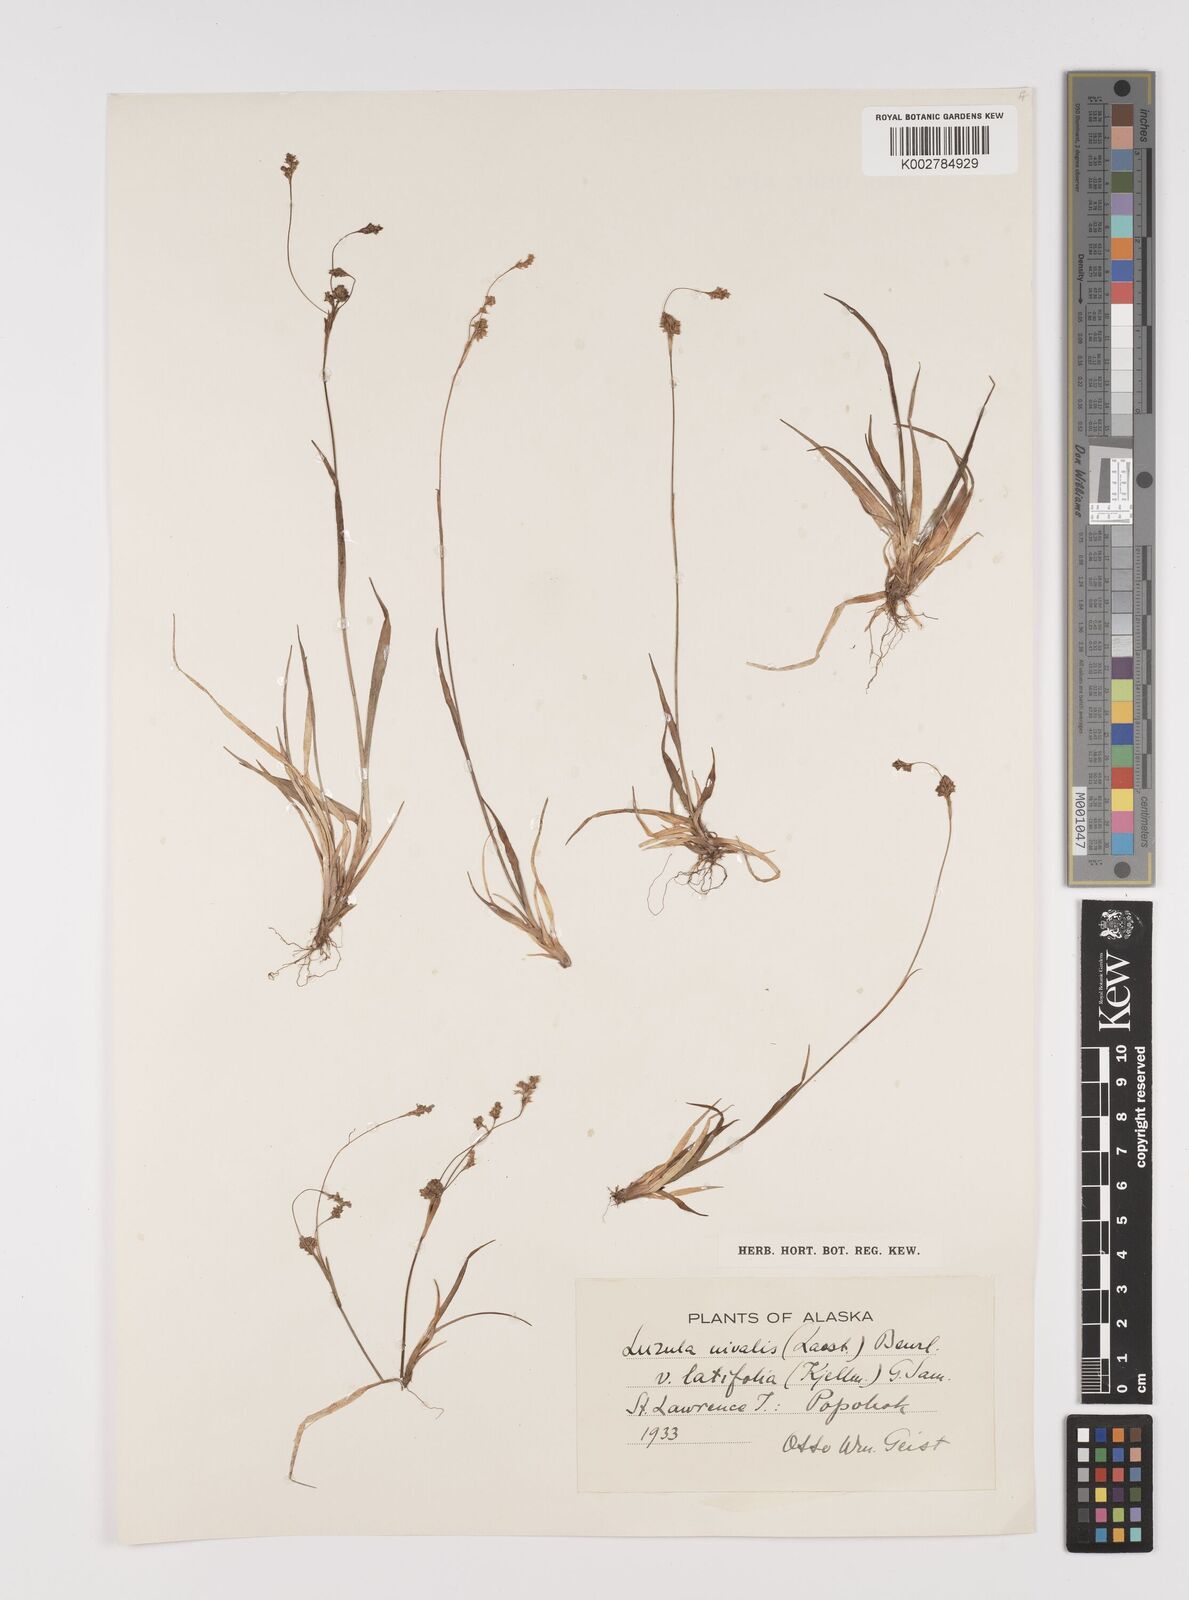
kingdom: Plantae
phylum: Tracheophyta
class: Liliopsida
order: Poales
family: Juncaceae
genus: Luzula
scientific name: Luzula nivalis
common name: Arctic woodrush
